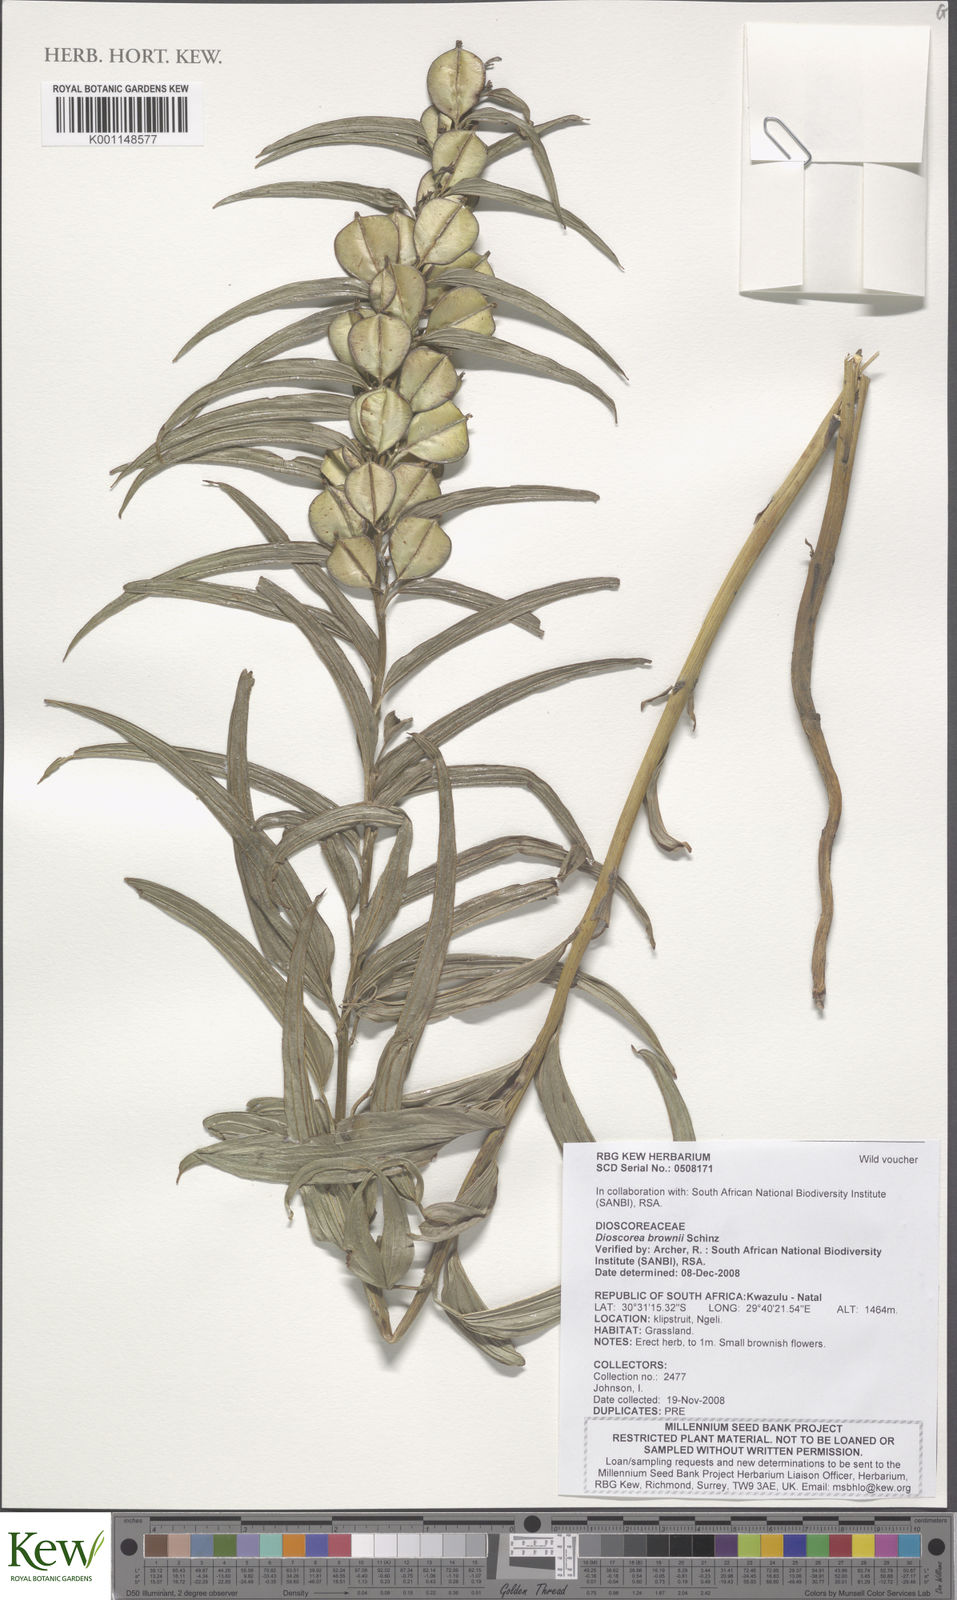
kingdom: Plantae
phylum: Tracheophyta
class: Liliopsida
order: Dioscoreales
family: Dioscoreaceae
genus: Dioscorea
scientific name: Dioscorea brownii
